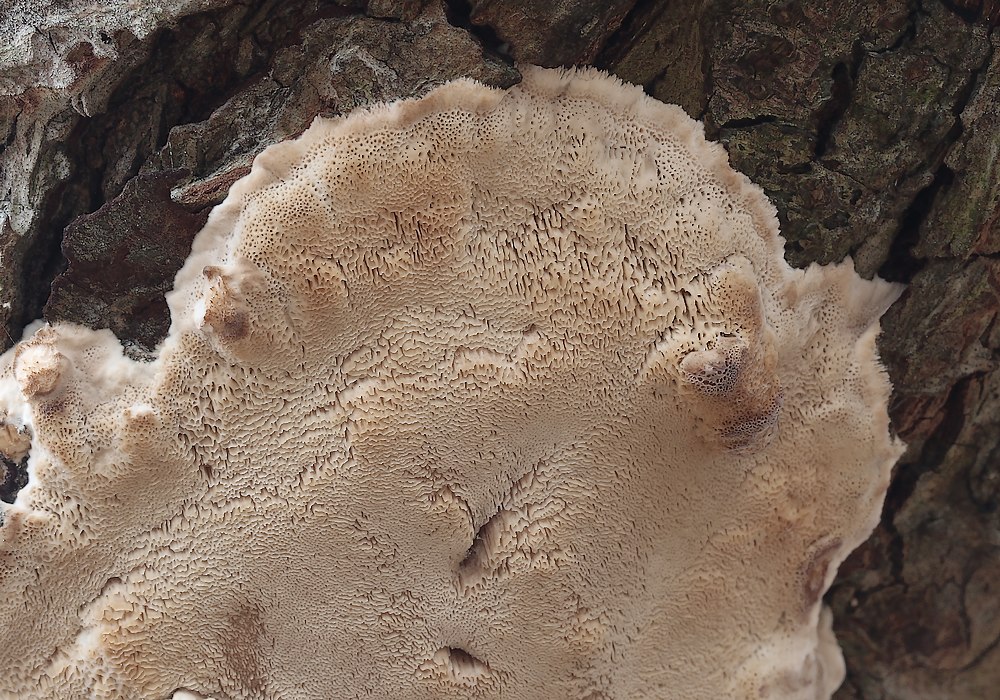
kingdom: Fungi
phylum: Basidiomycota
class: Agaricomycetes
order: Polyporales
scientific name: Polyporales
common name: poresvampordenen
